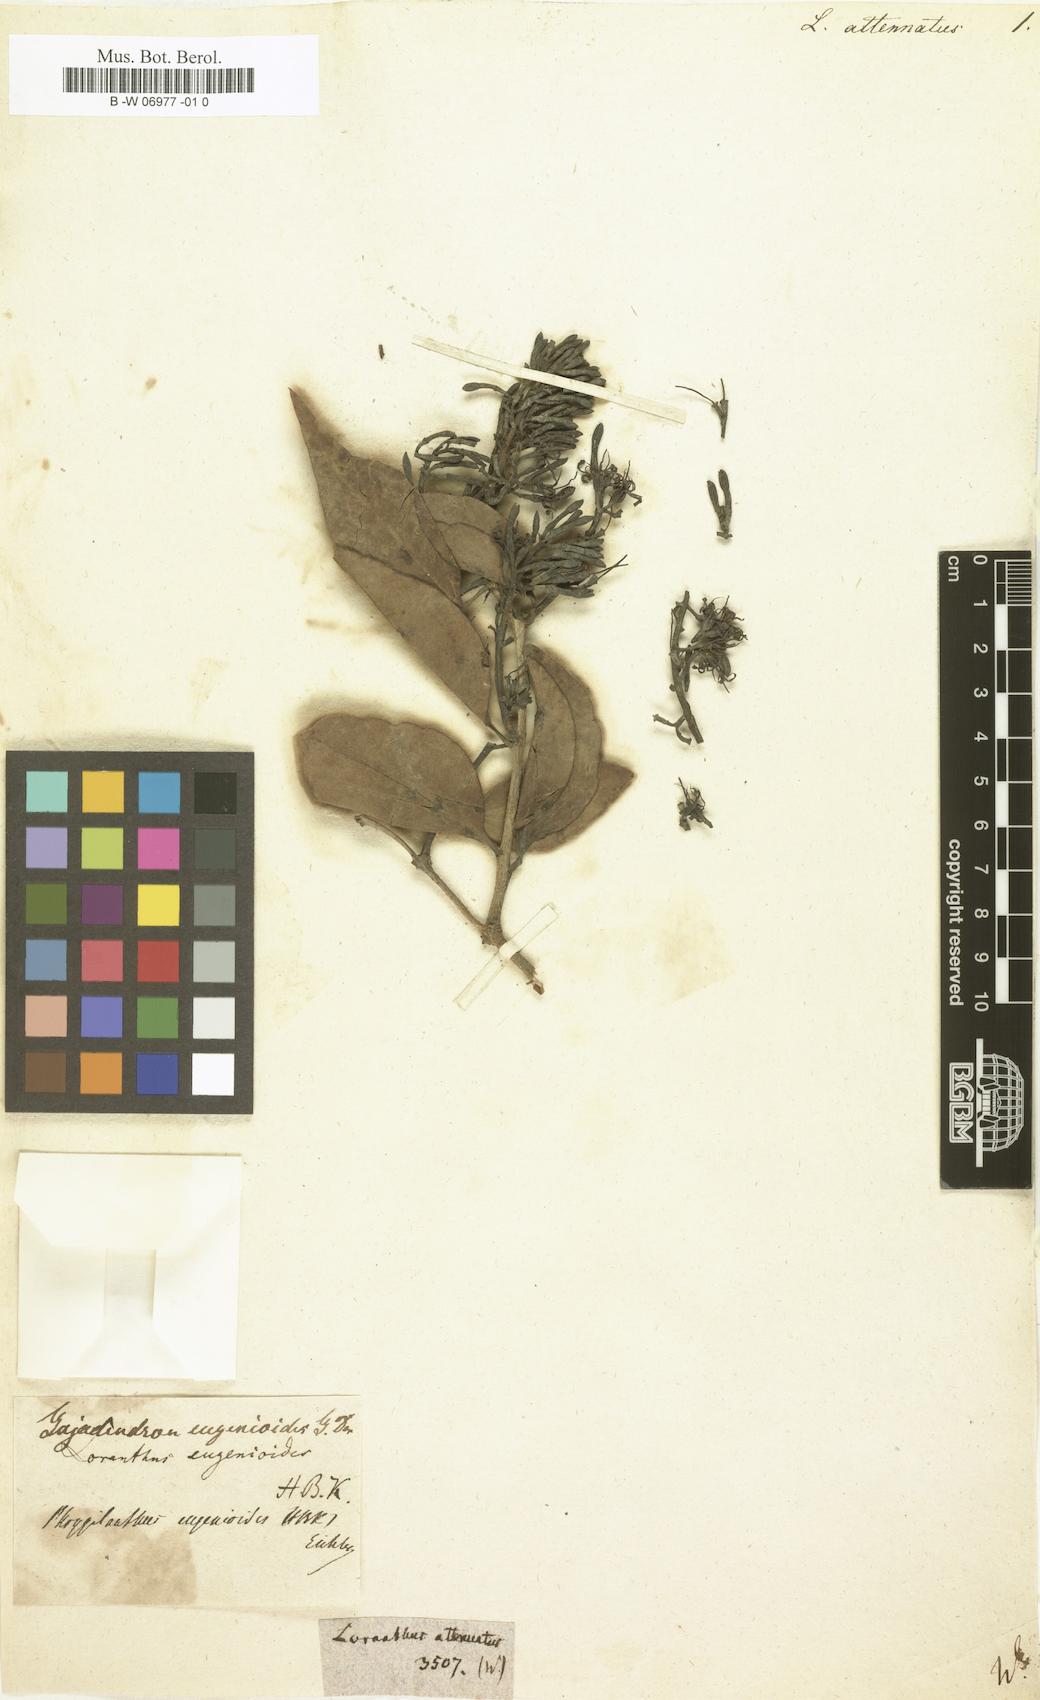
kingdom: Plantae
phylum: Tracheophyta
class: Magnoliopsida
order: Santalales
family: Loranthaceae
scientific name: Loranthaceae
